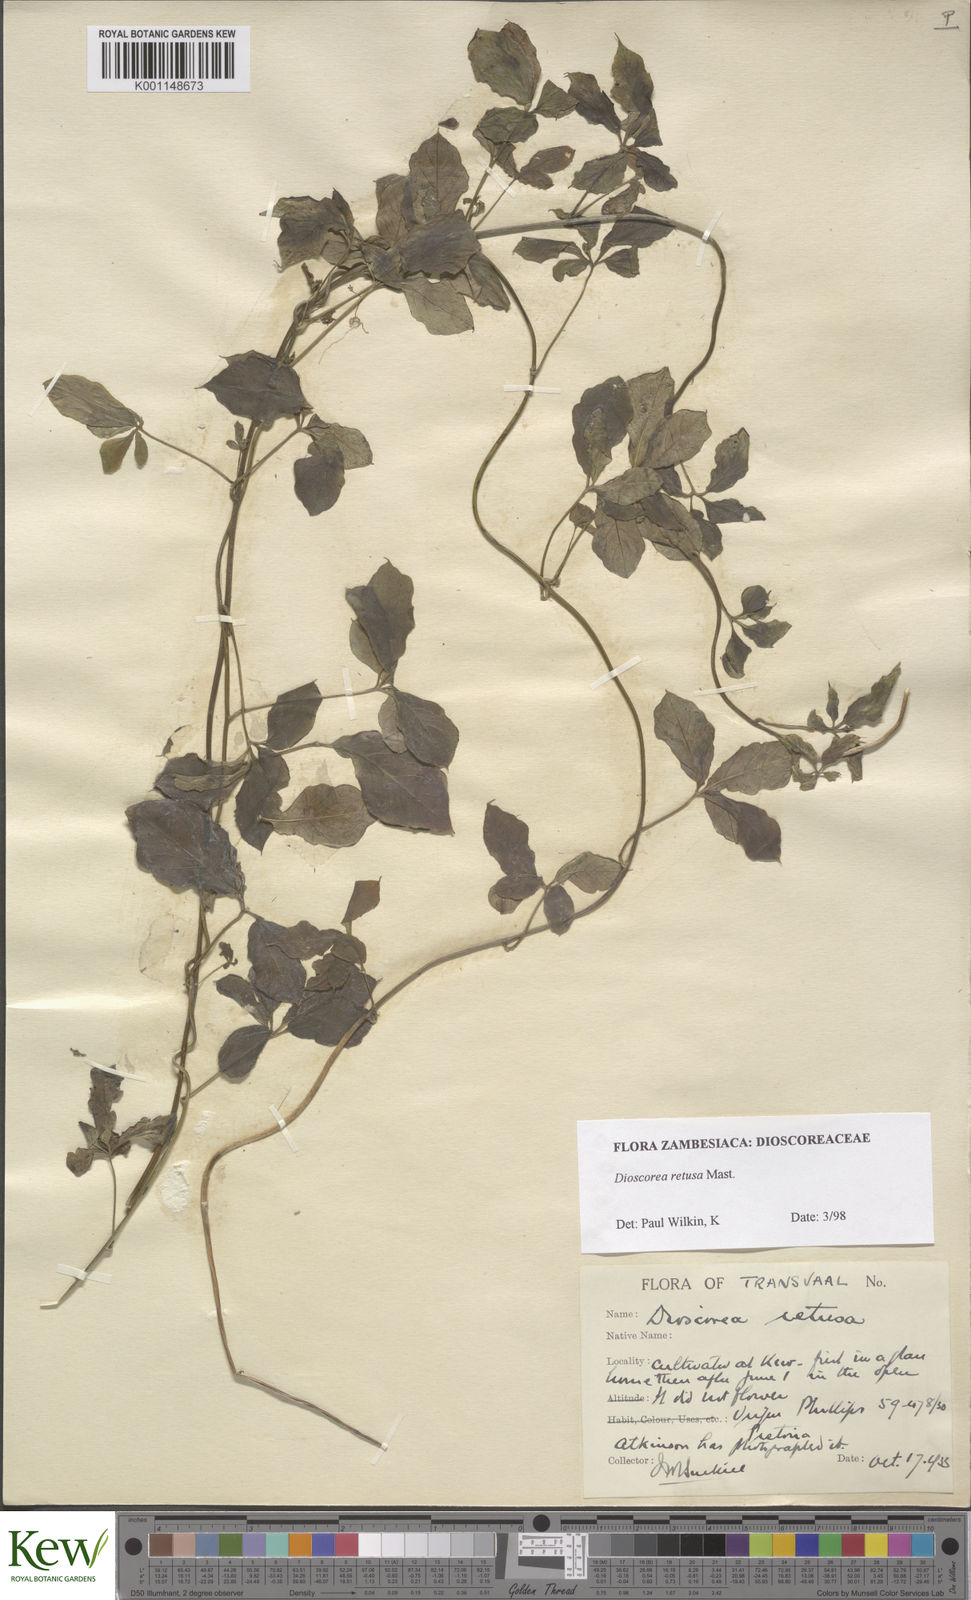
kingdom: Plantae
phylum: Tracheophyta
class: Liliopsida
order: Dioscoreales
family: Dioscoreaceae
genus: Dioscorea
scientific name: Dioscorea retusa
